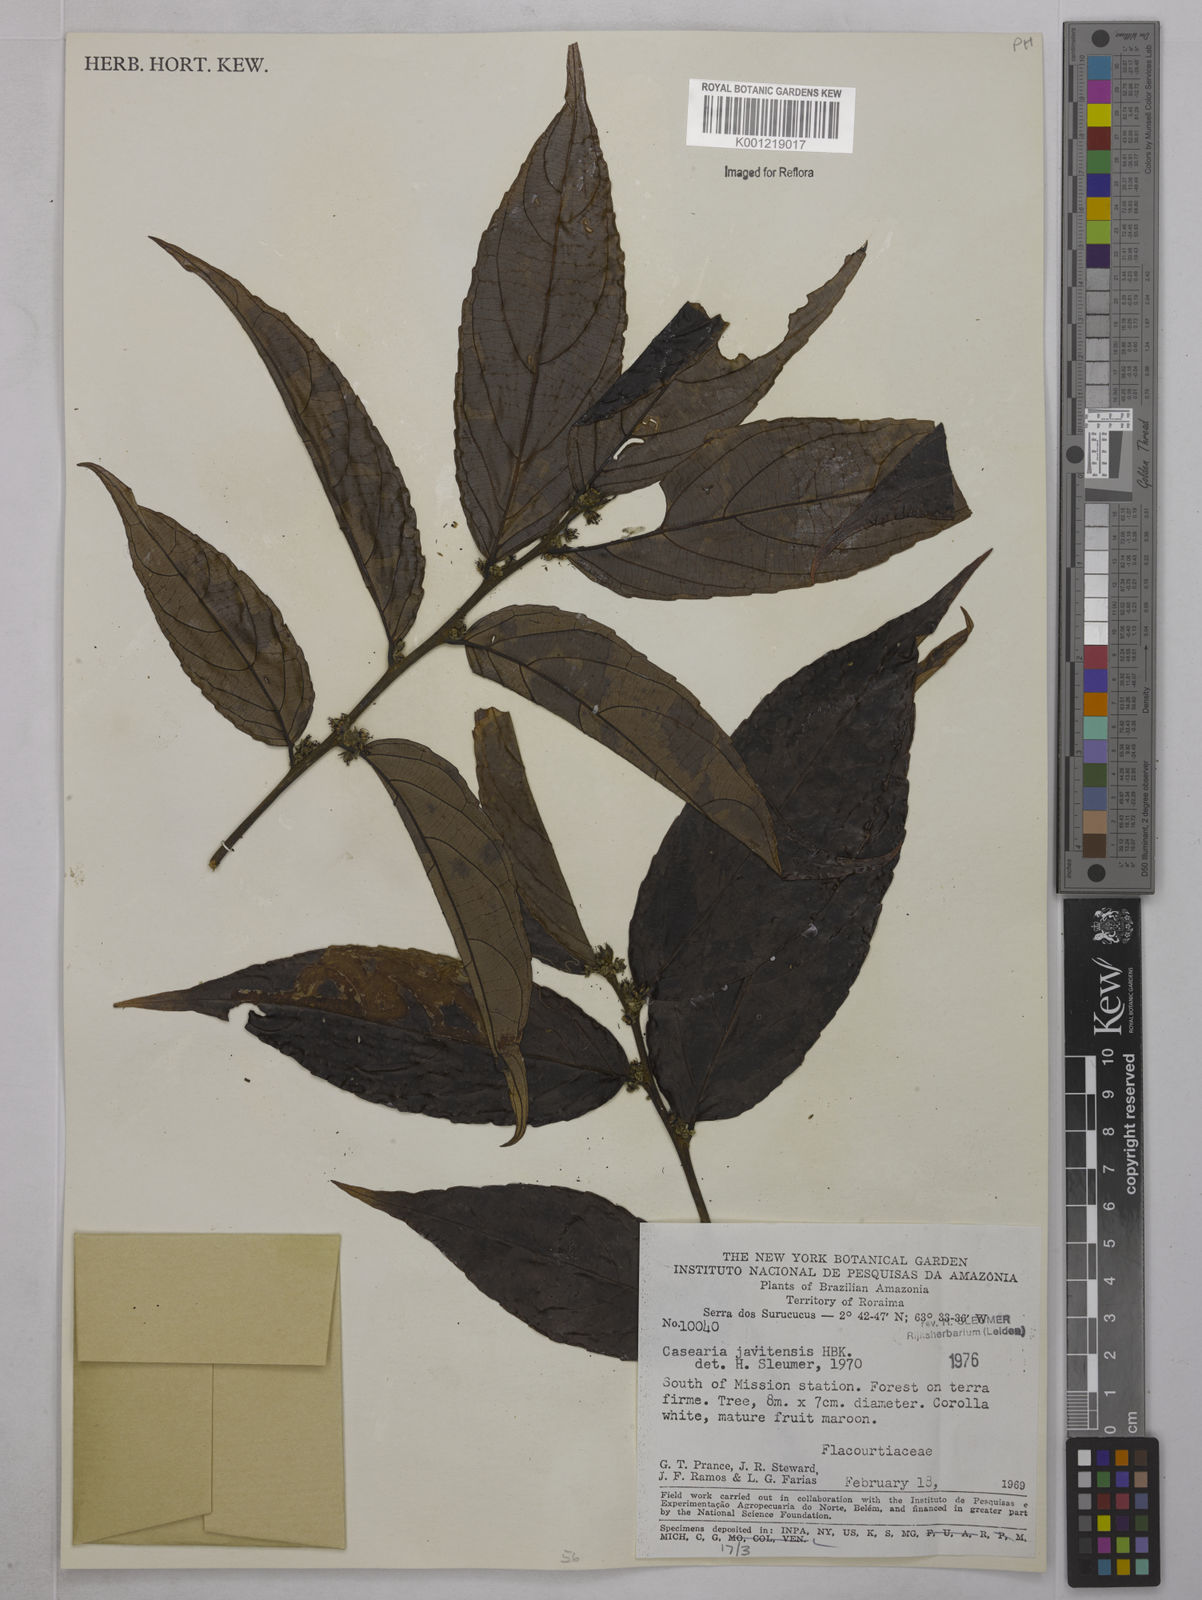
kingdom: Plantae
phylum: Tracheophyta
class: Magnoliopsida
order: Malpighiales
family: Salicaceae
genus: Piparea
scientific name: Piparea multiflora
